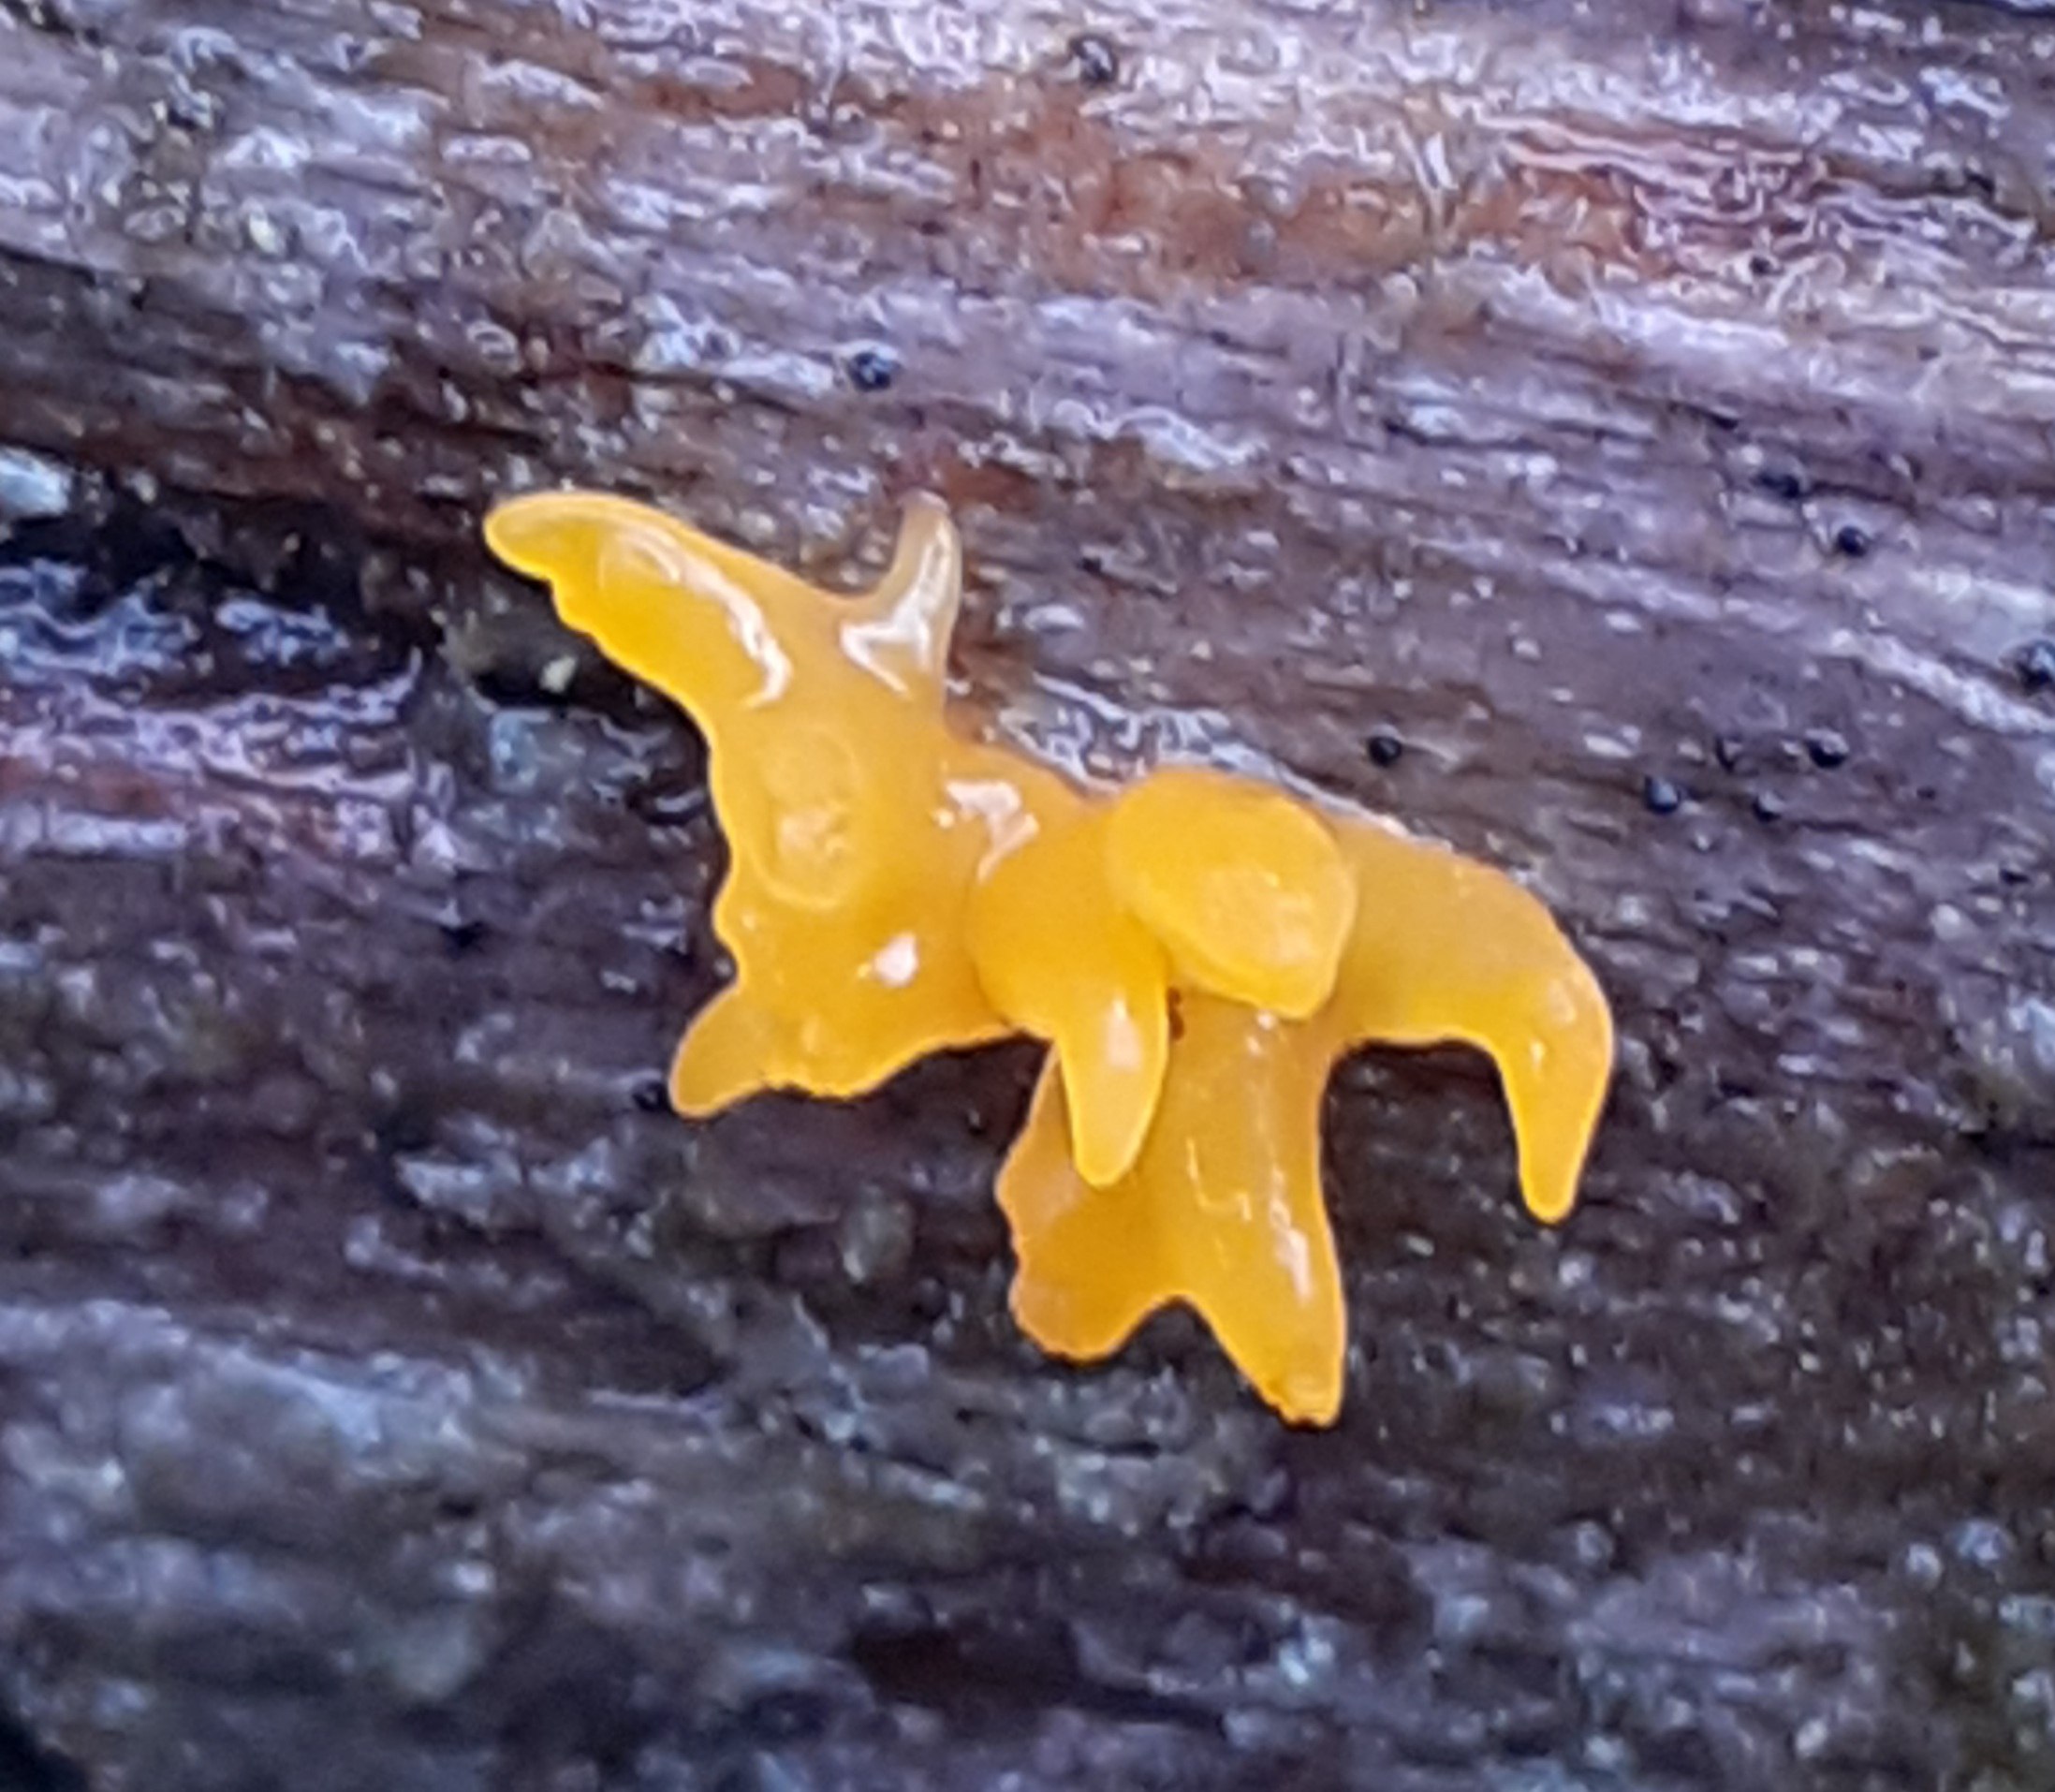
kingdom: Fungi
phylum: Basidiomycota
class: Dacrymycetes
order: Dacrymycetales
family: Dacrymycetaceae
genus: Calocera
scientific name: Calocera furcata
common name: fyrre-guldgaffel
